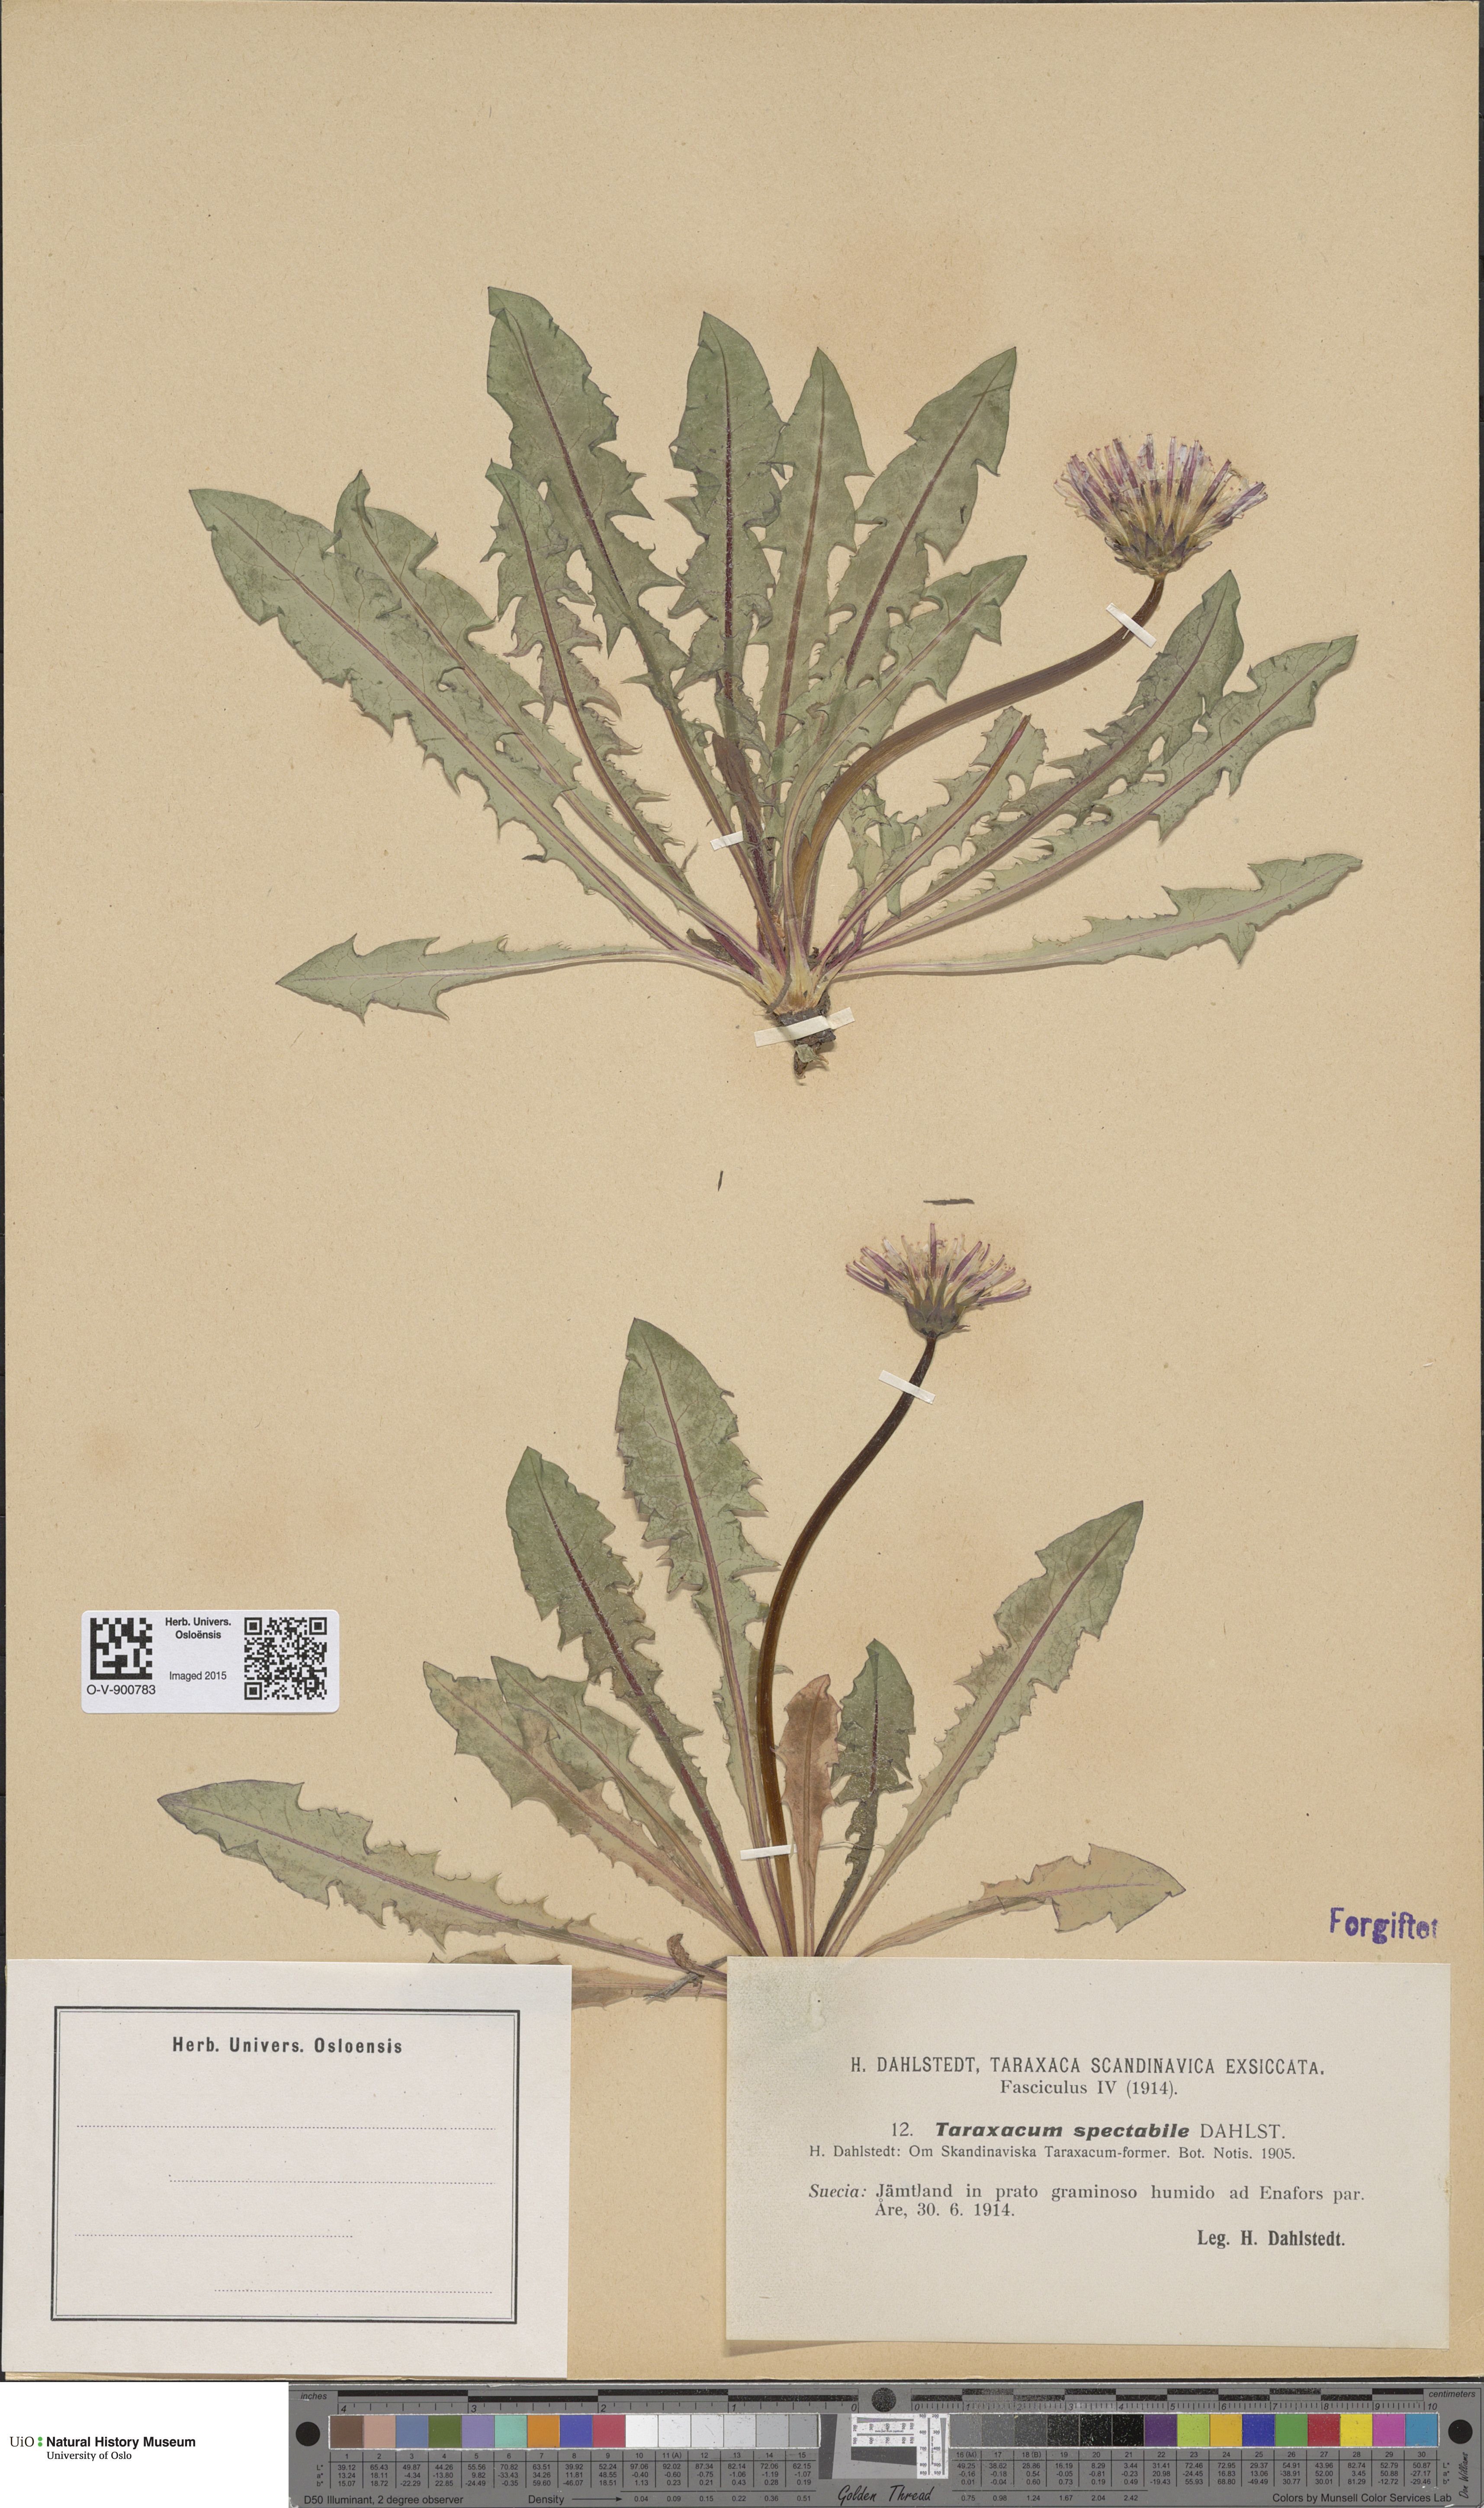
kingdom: Plantae
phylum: Tracheophyta
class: Magnoliopsida
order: Asterales
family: Asteraceae
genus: Taraxacum
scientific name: Taraxacum spectabile
